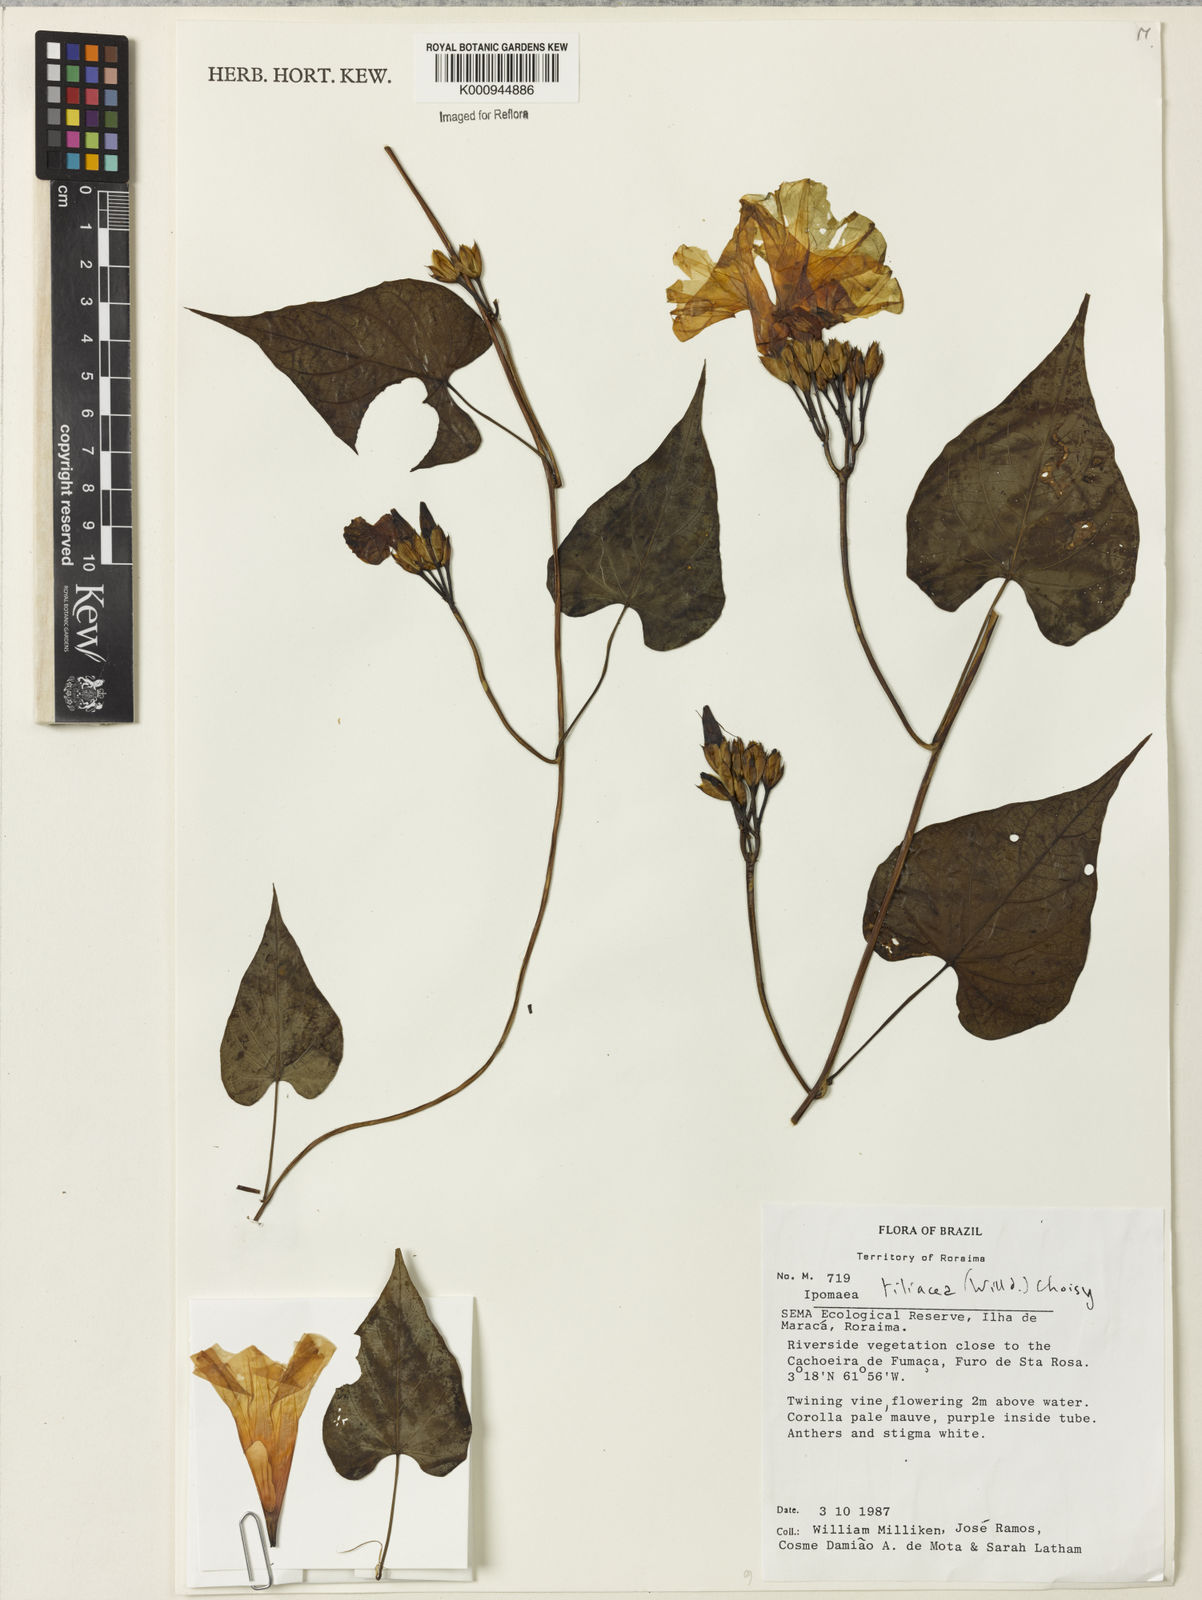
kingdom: Plantae
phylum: Tracheophyta
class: Magnoliopsida
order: Solanales
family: Convolvulaceae
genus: Ipomoea
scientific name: Ipomoea tiliacea
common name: Wild potato vine
